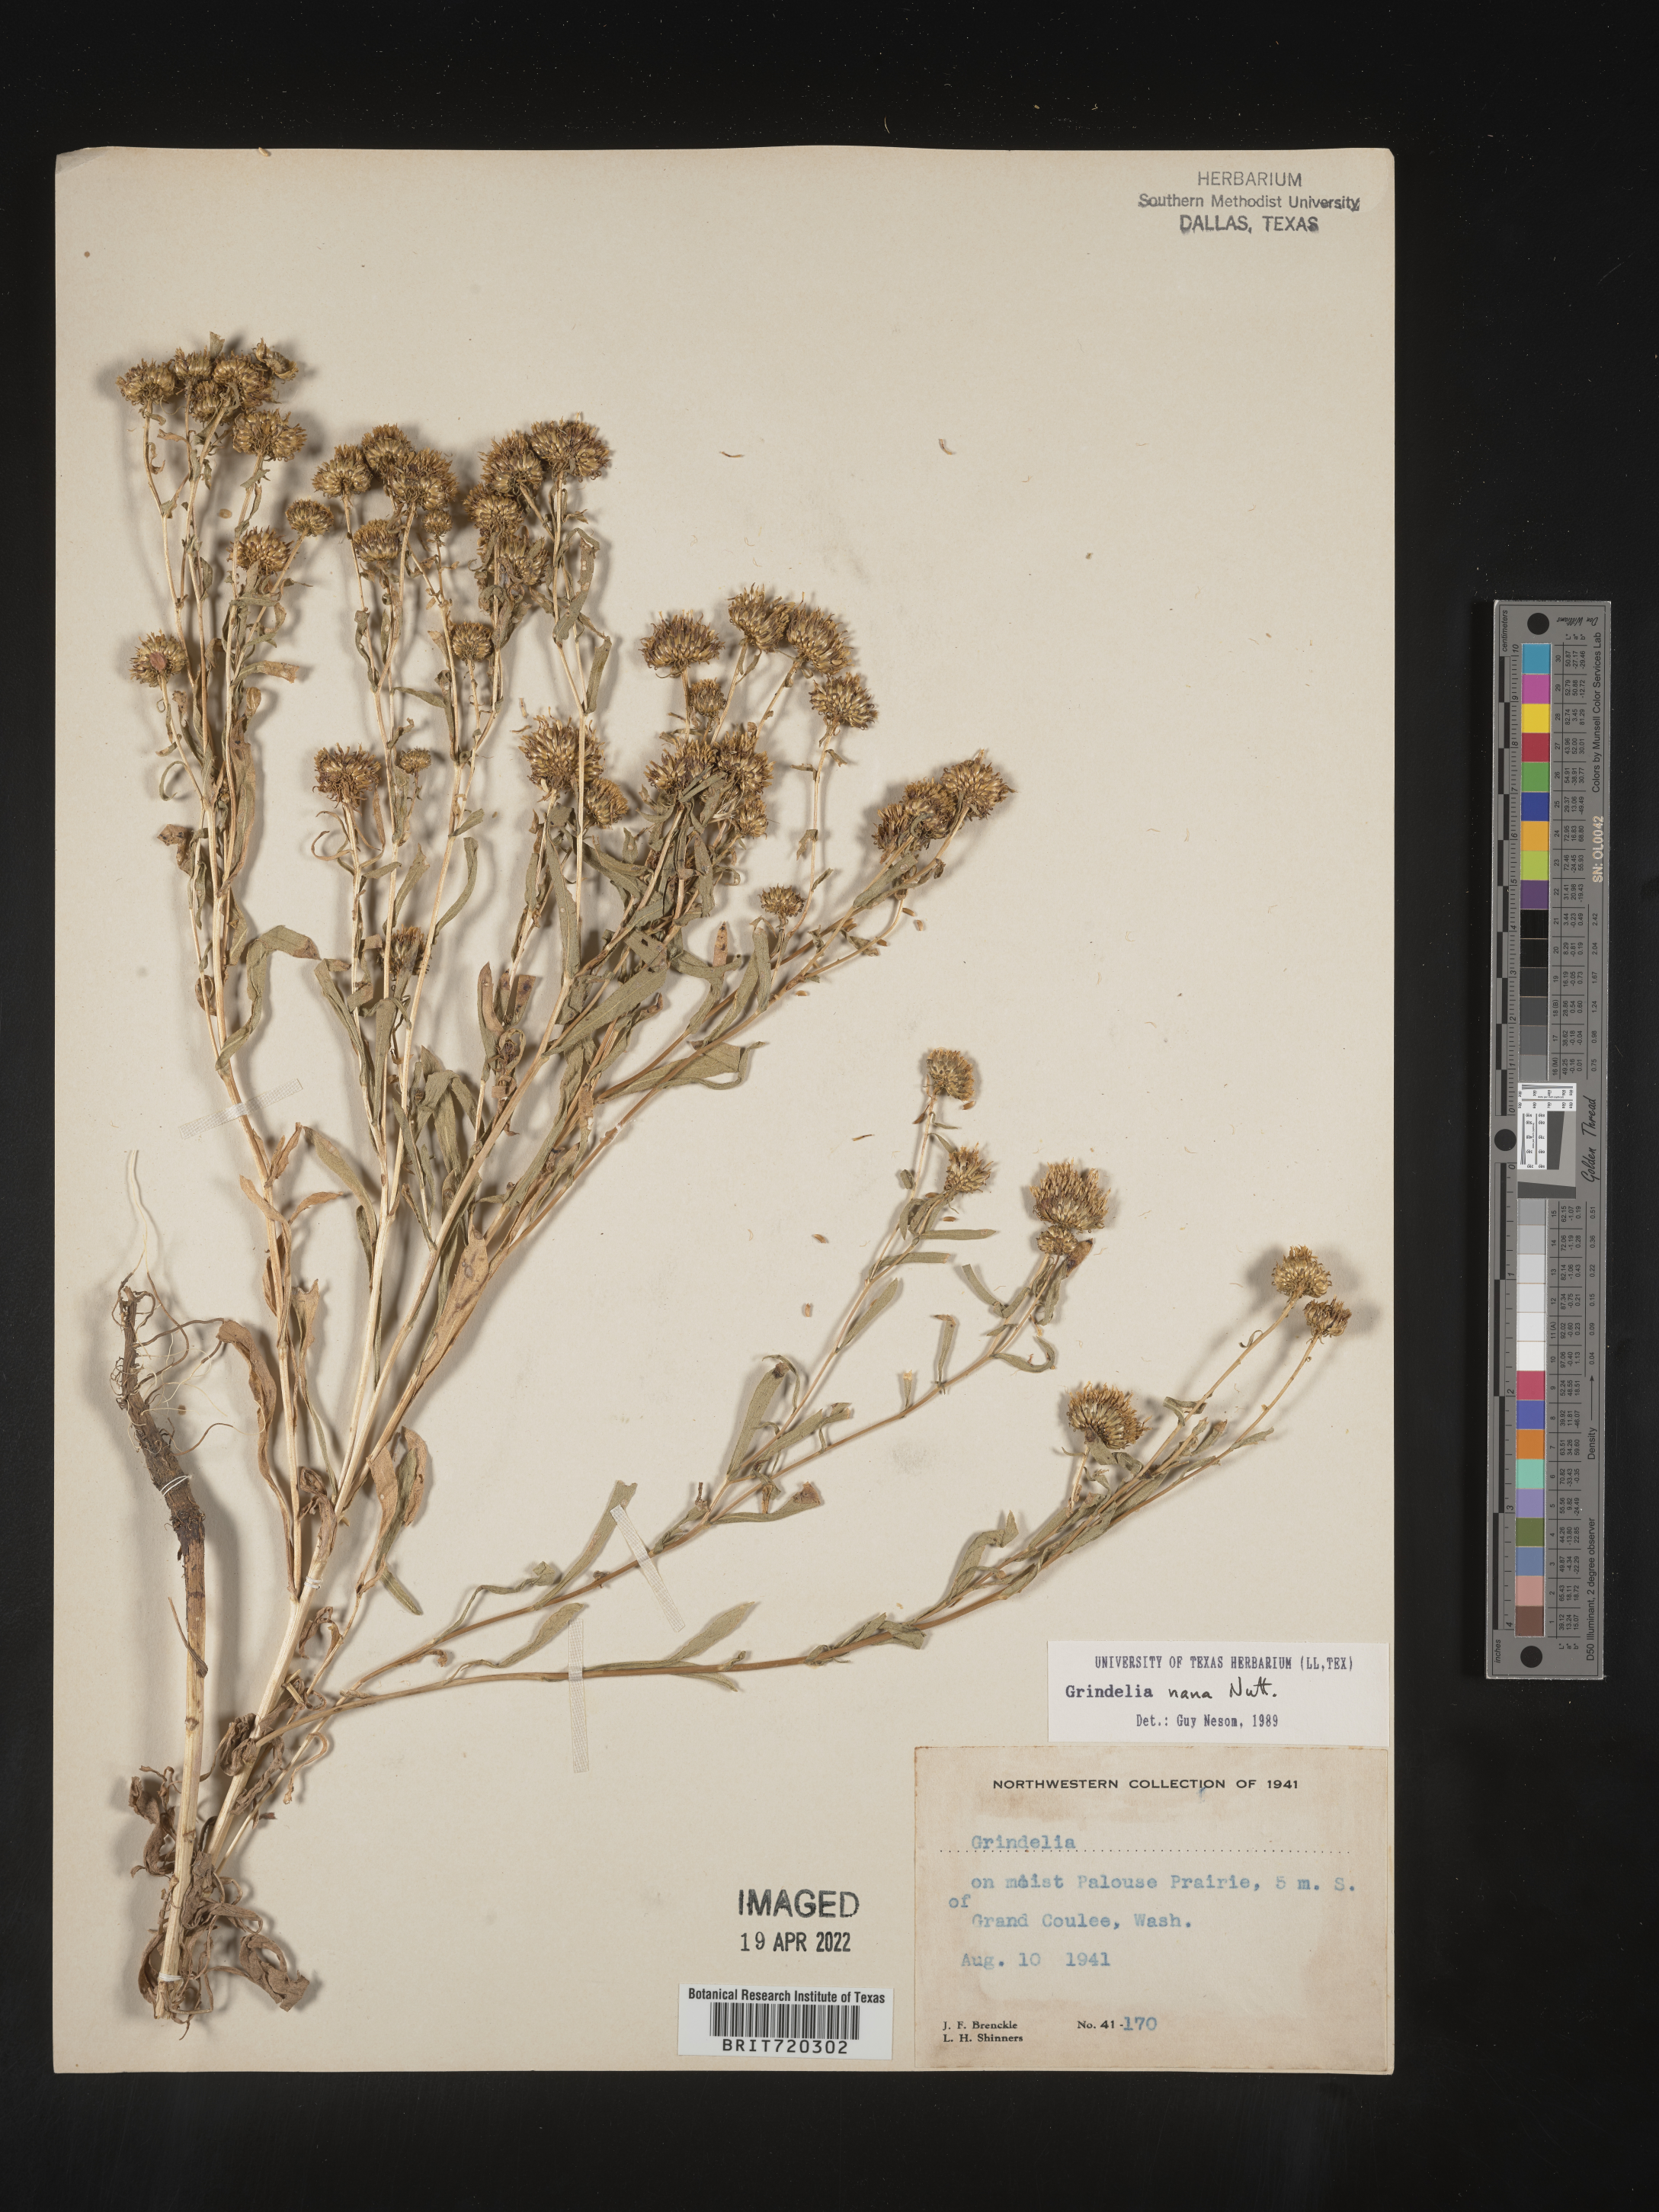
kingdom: Plantae
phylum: Tracheophyta
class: Magnoliopsida
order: Asterales
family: Asteraceae
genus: Grindelia
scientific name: Grindelia hirsutula
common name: Hairy gumweed
